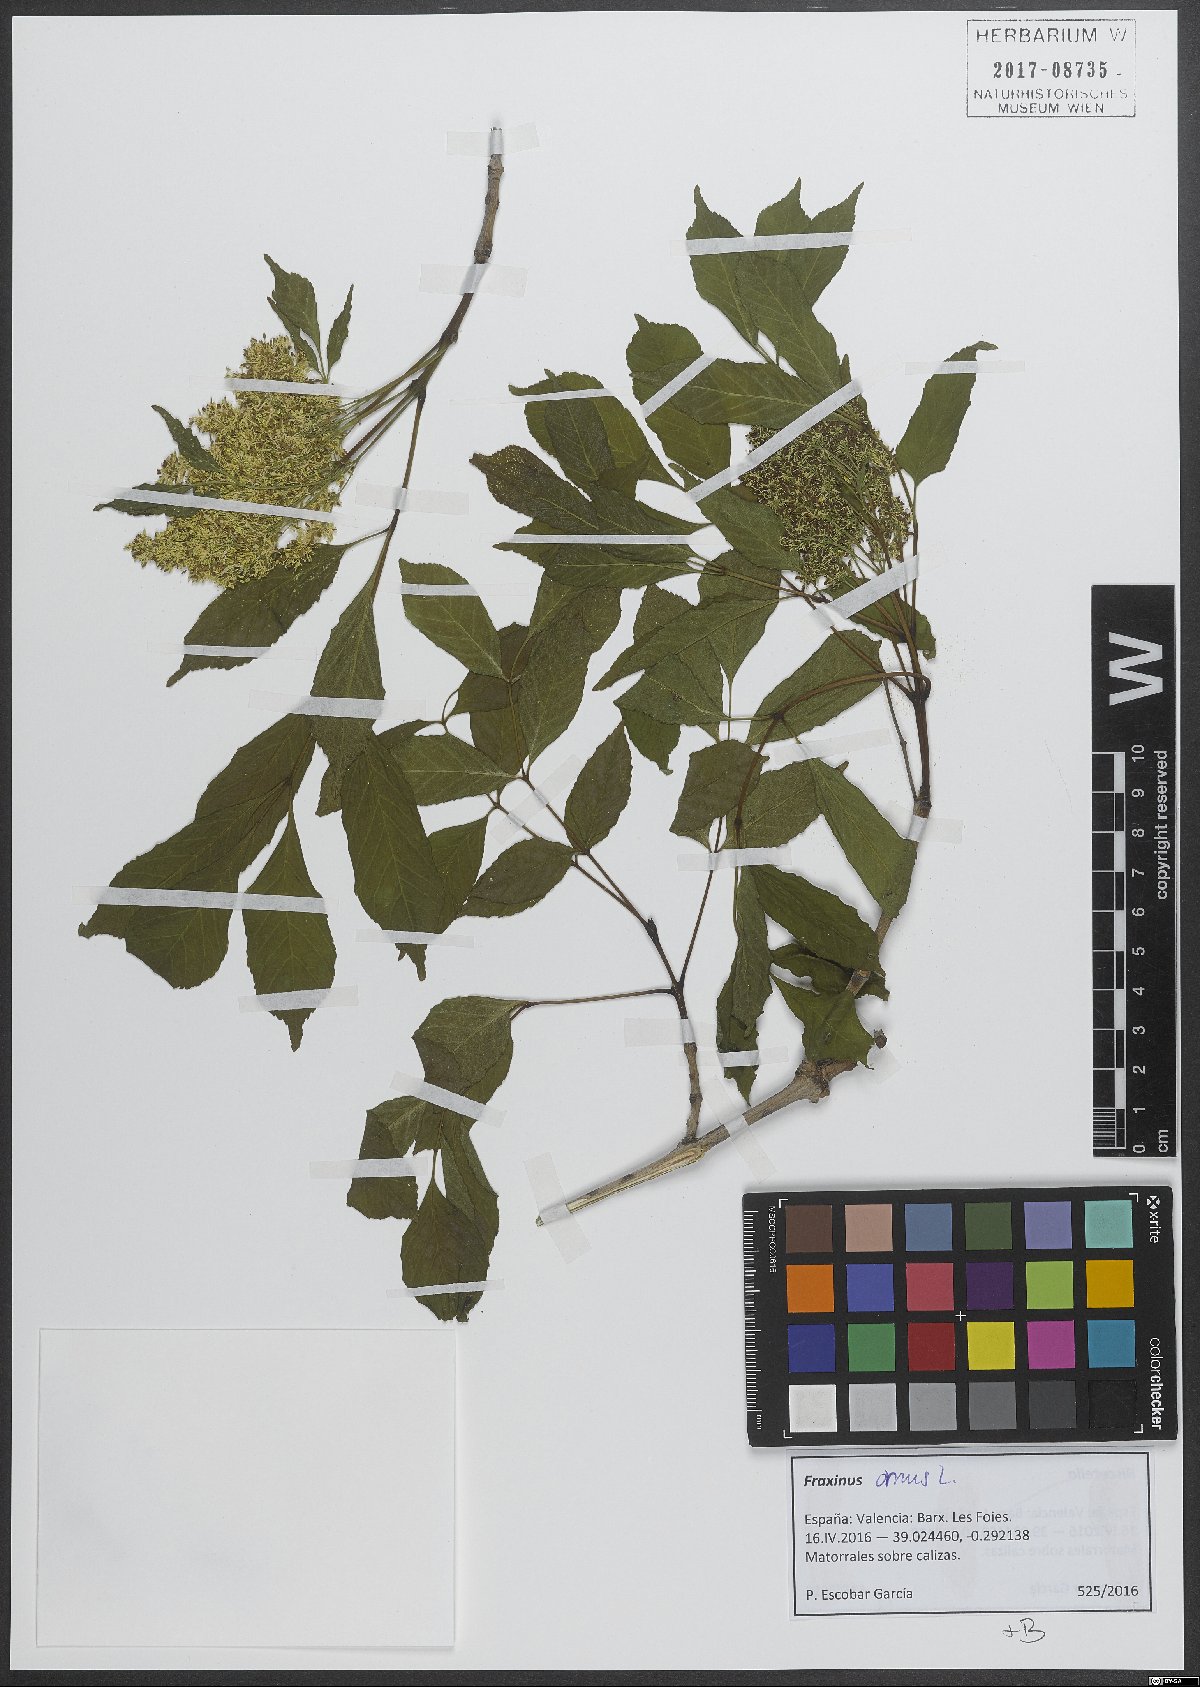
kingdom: Plantae
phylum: Tracheophyta
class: Magnoliopsida
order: Lamiales
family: Oleaceae
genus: Fraxinus
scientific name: Fraxinus ornus
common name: Manna ash
